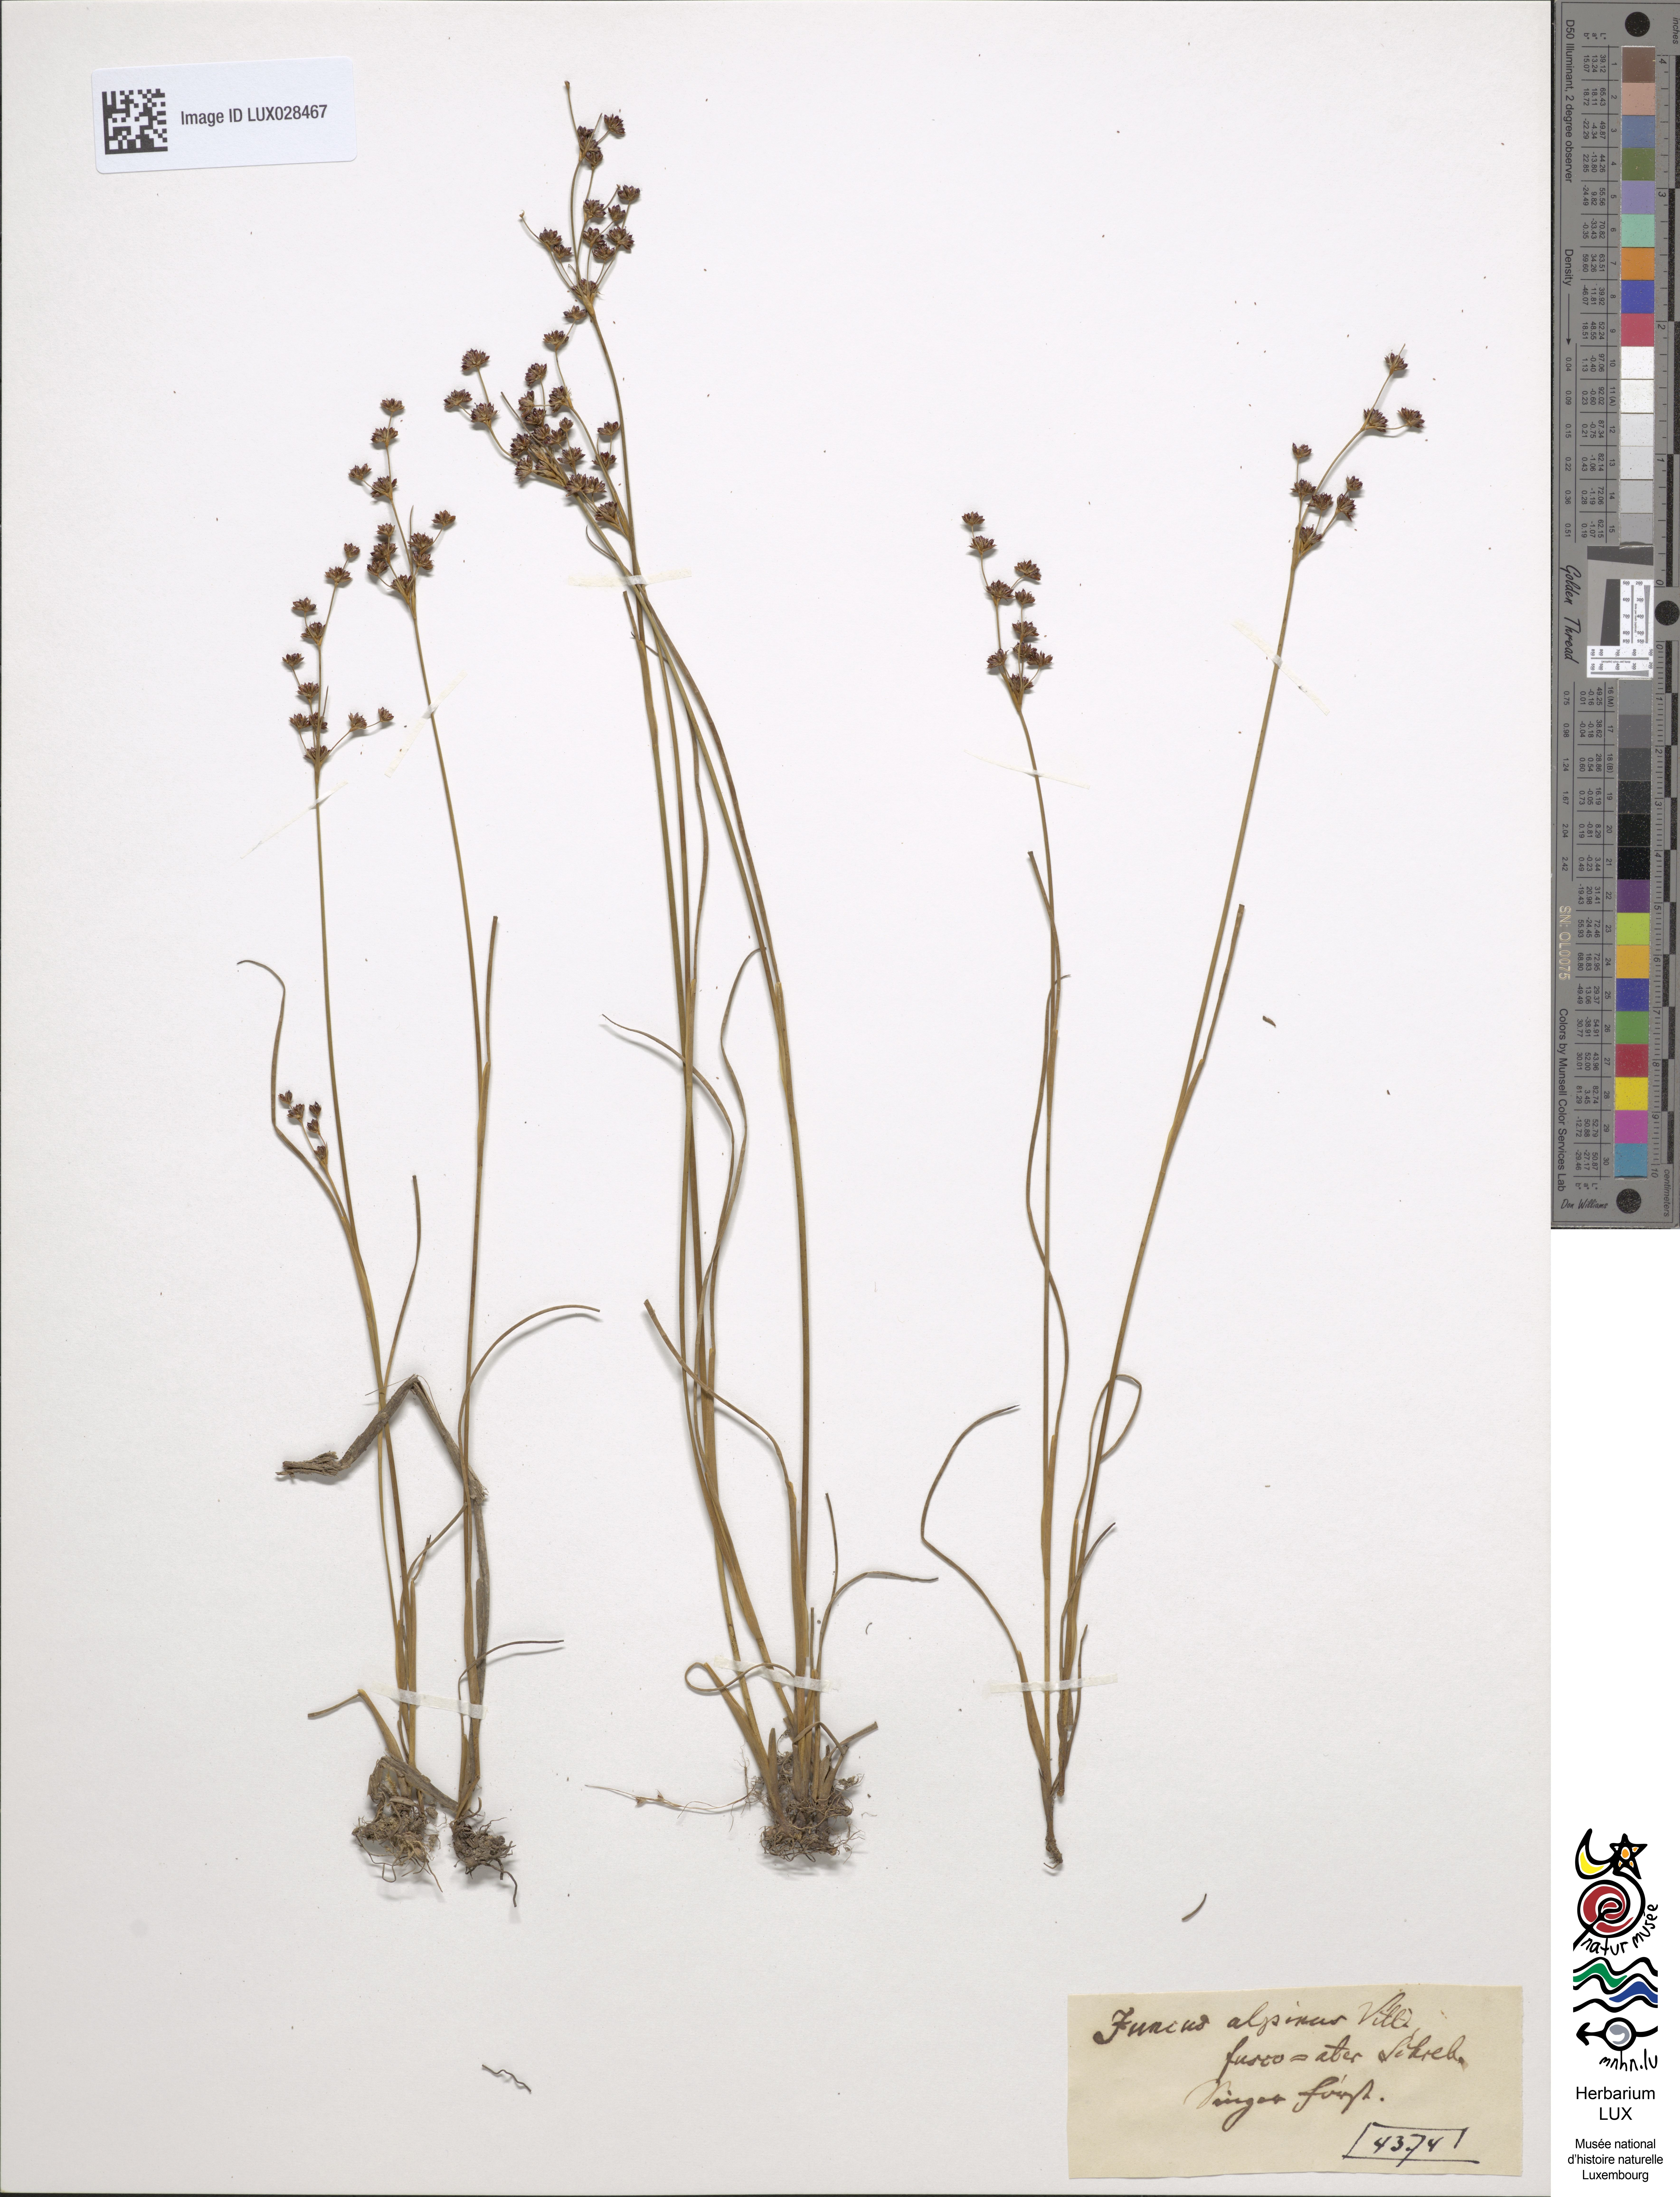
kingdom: Plantae
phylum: Tracheophyta
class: Liliopsida
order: Poales
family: Juncaceae
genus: Juncus
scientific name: Juncus alpinoarticulatus
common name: Alpine rush
